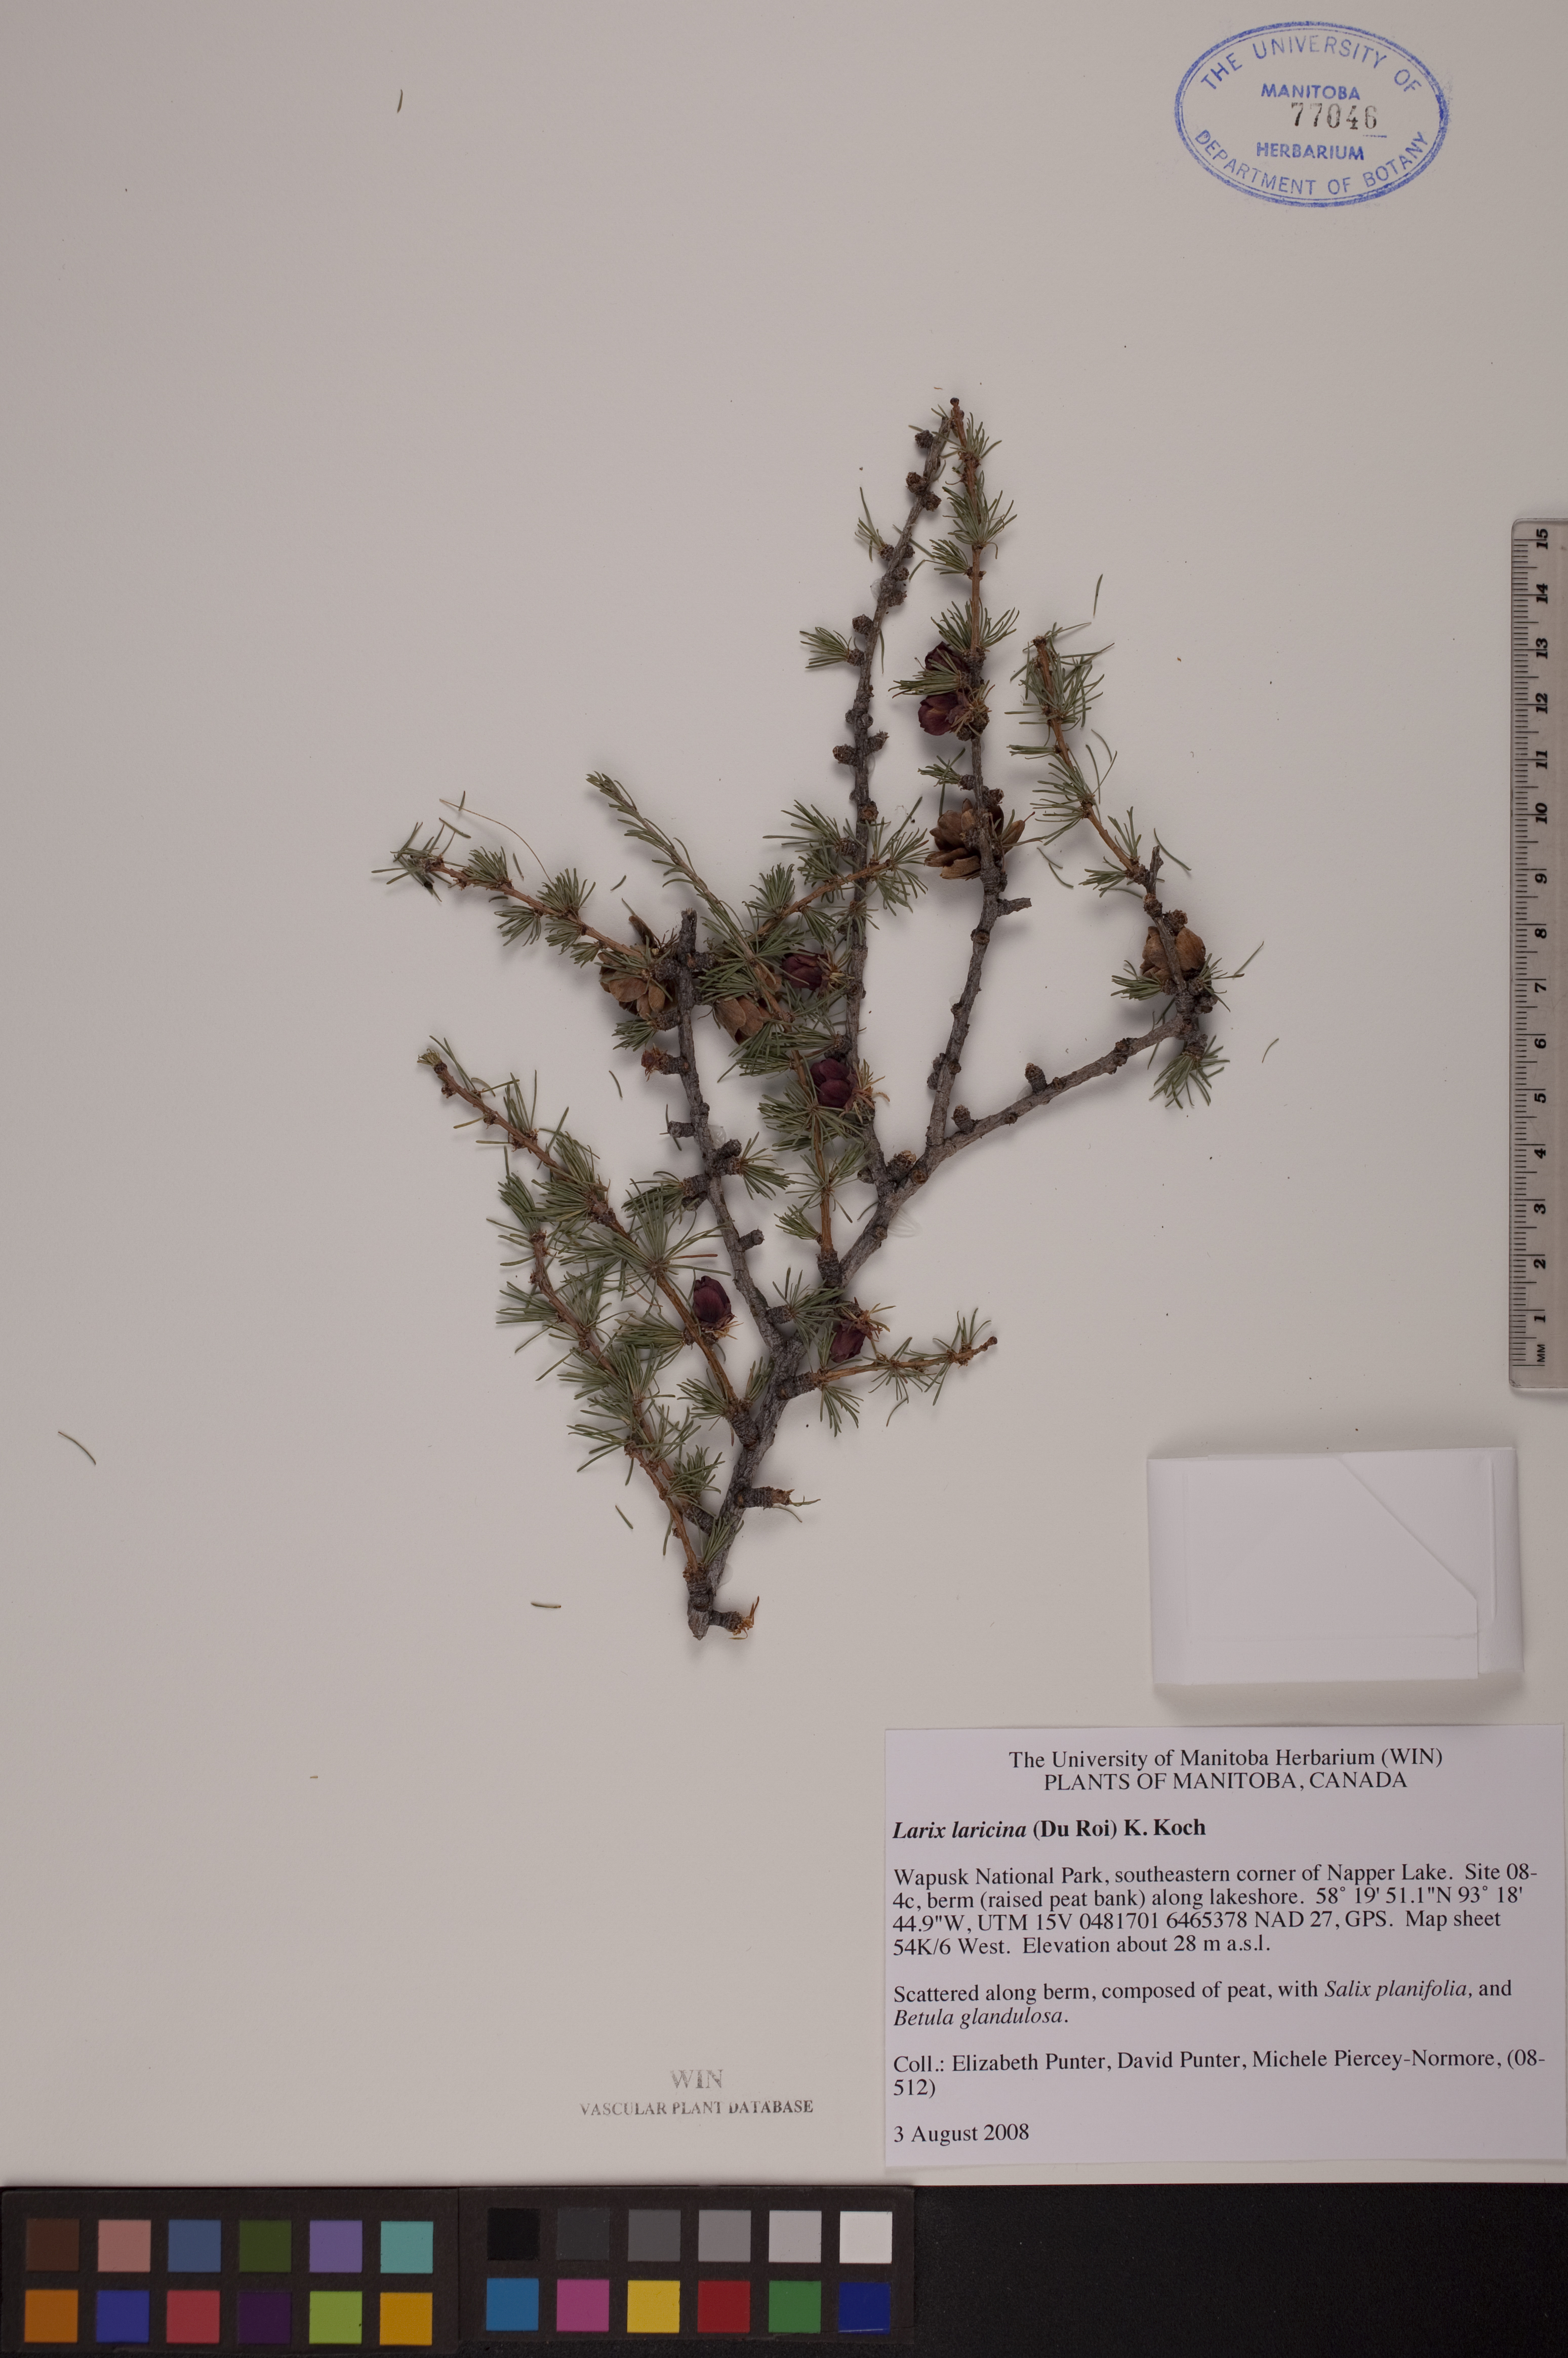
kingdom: Plantae
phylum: Tracheophyta
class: Pinopsida
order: Pinales
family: Pinaceae
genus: Larix
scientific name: Larix laricina
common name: American larch
